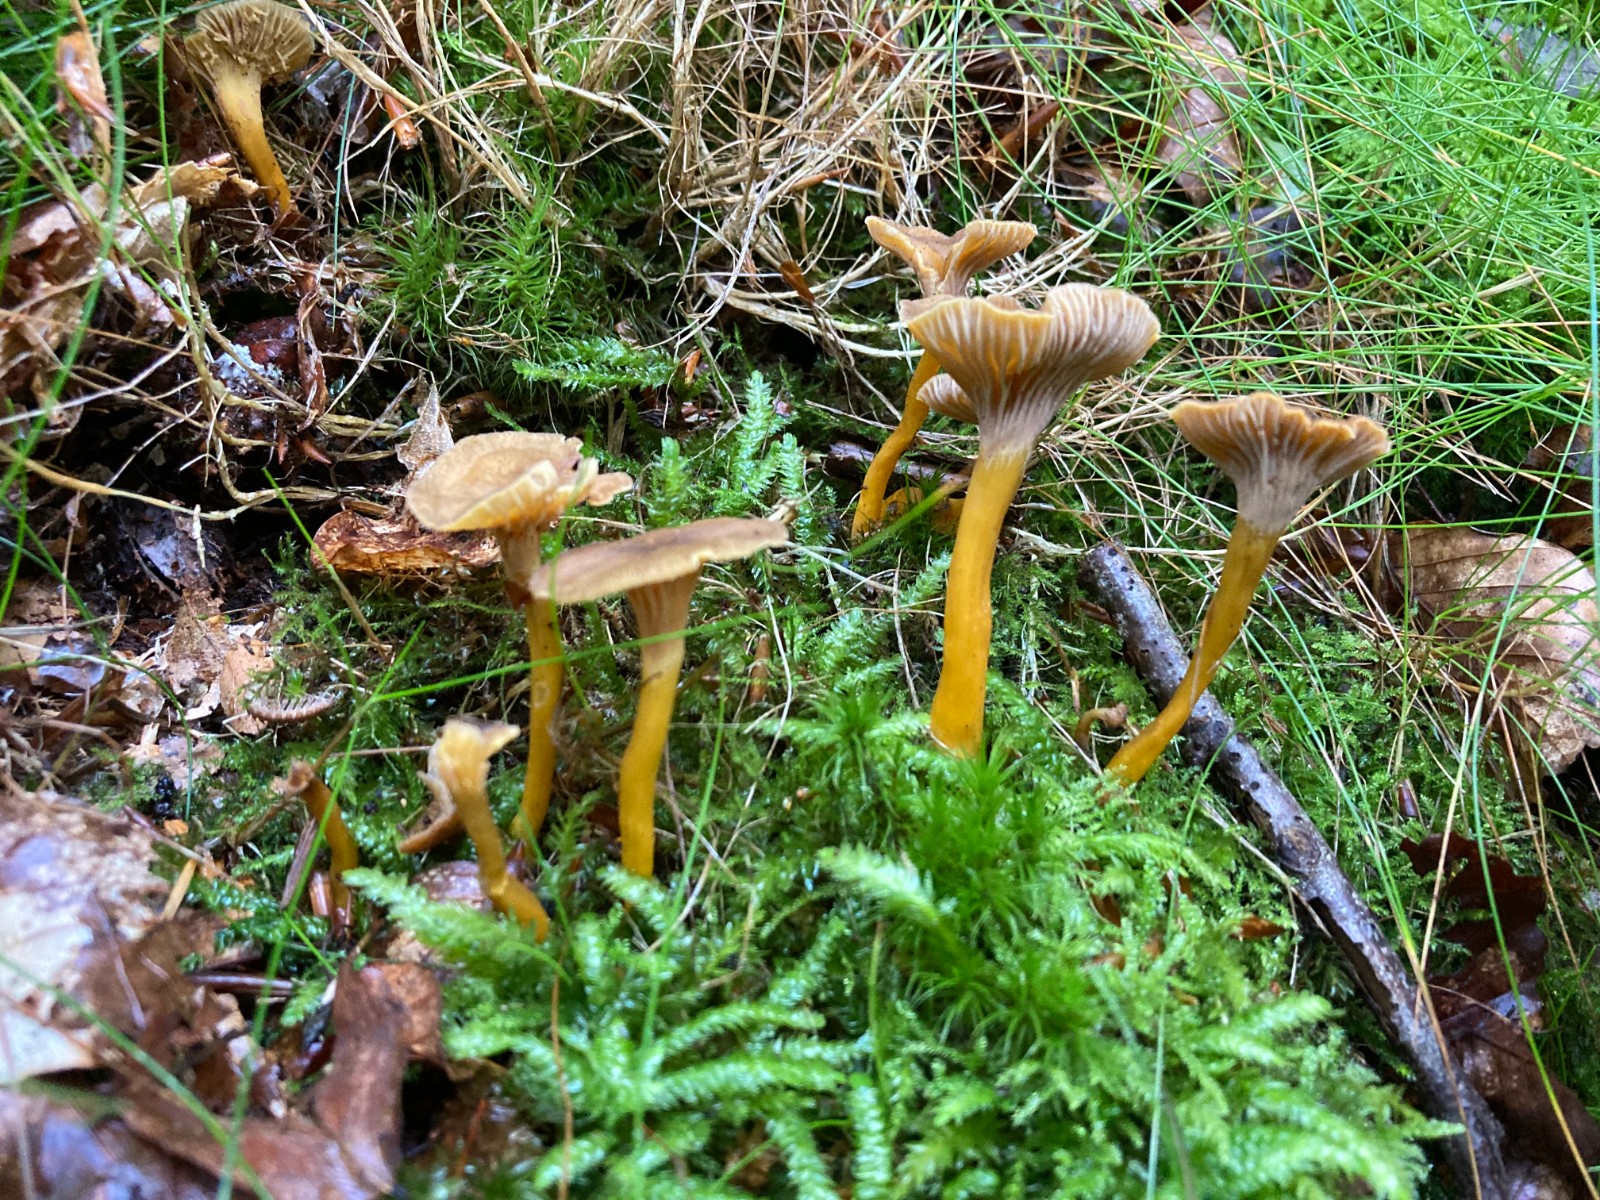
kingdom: Fungi
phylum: Basidiomycota
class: Agaricomycetes
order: Cantharellales
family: Hydnaceae
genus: Craterellus
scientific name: Craterellus tubaeformis
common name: tragt-kantarel
